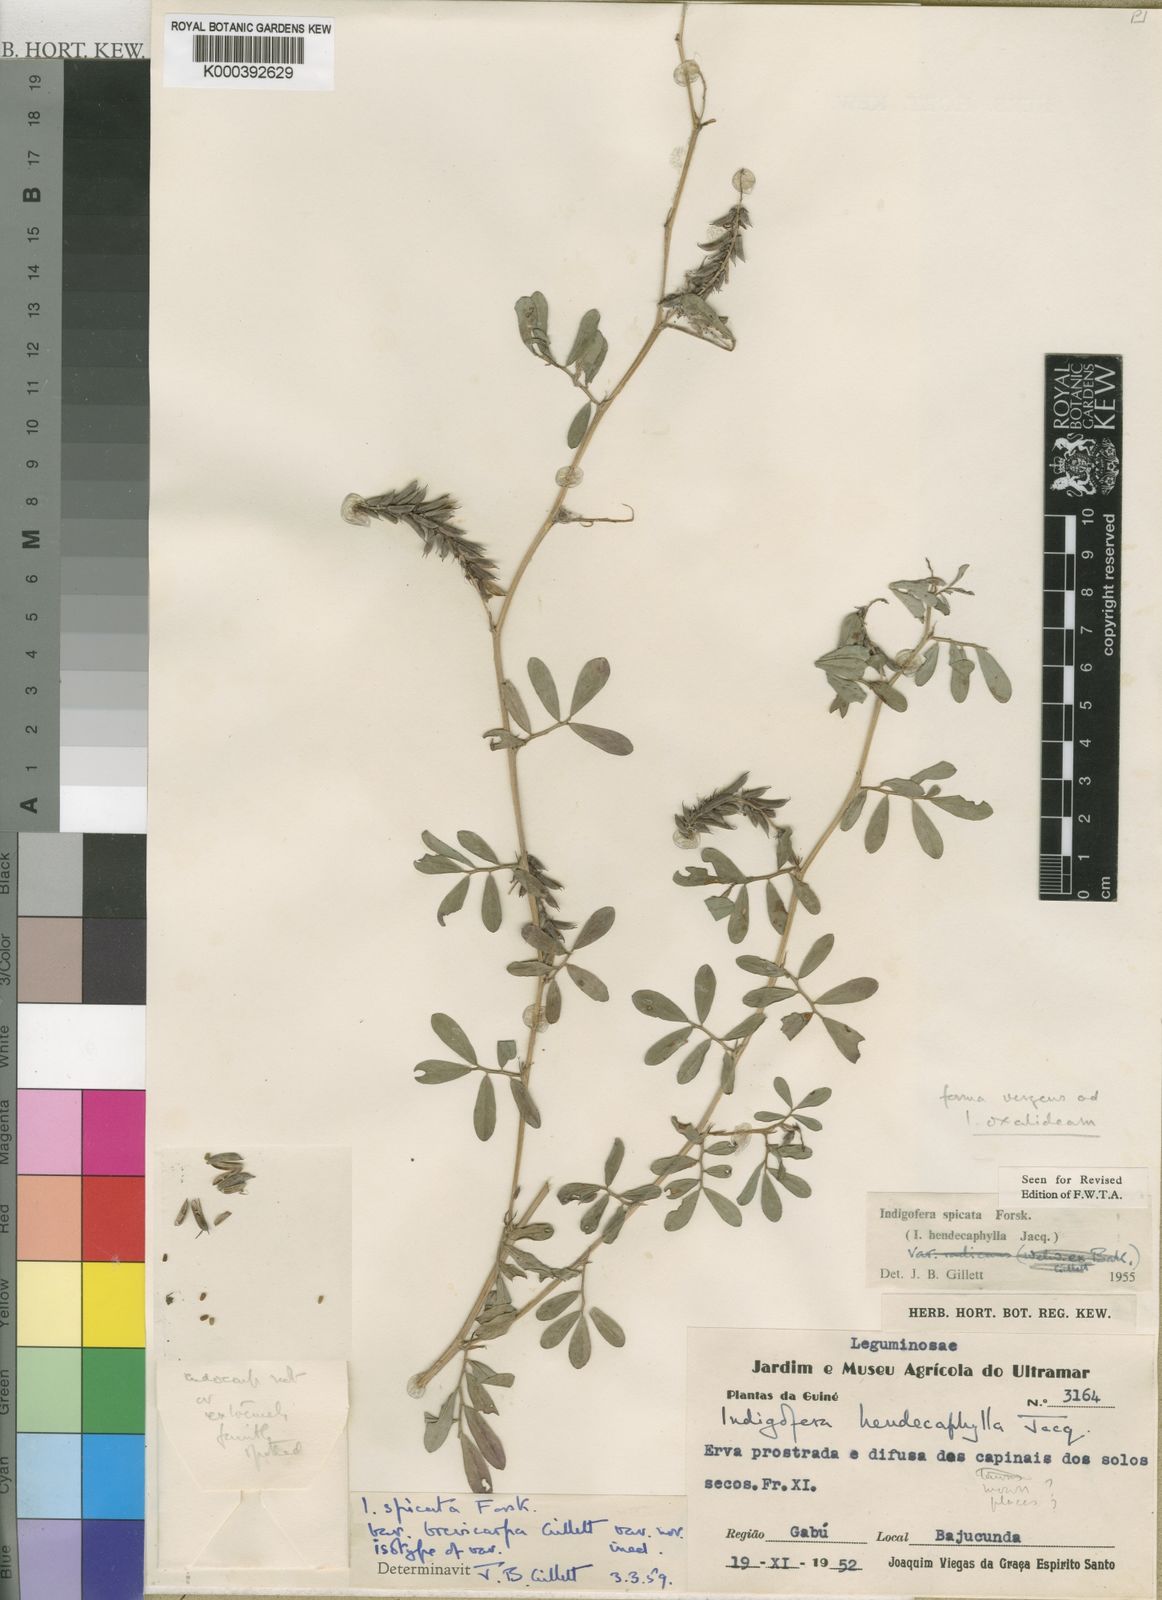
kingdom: Plantae
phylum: Tracheophyta
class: Magnoliopsida
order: Fabales
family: Fabaceae
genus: Indigofera
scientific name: Indigofera spicata
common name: Creeping indigo
